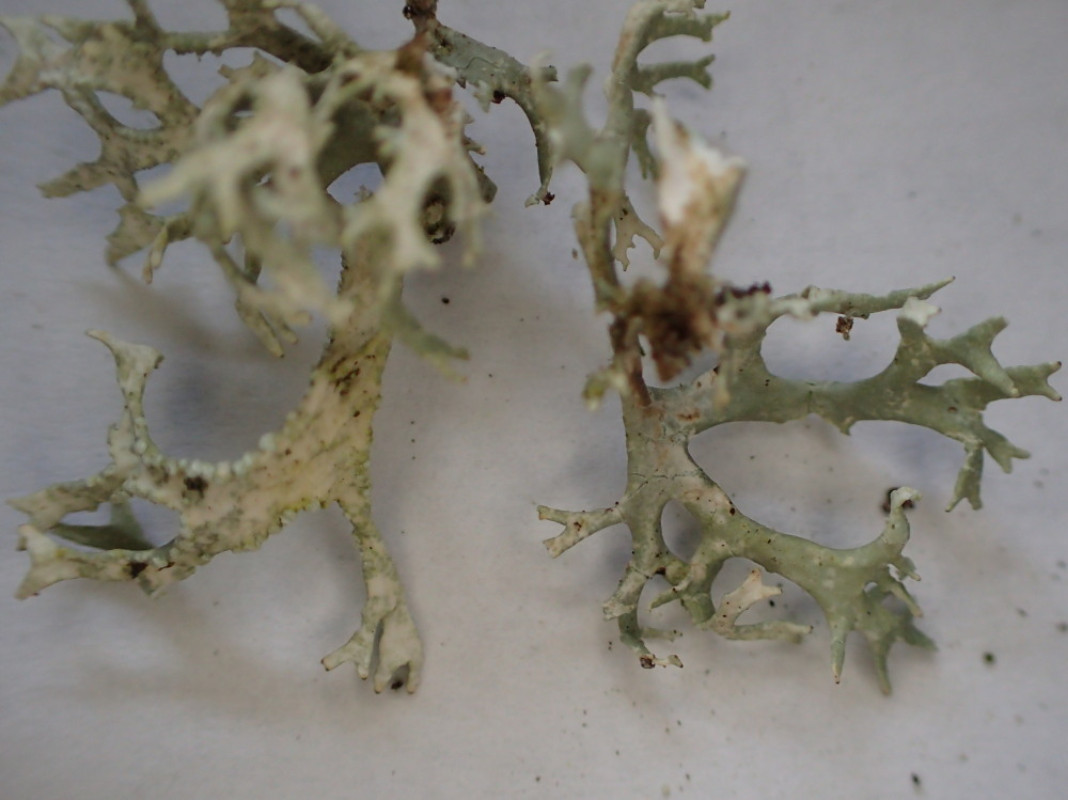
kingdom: Fungi
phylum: Ascomycota
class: Lecanoromycetes
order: Lecanorales
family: Parmeliaceae
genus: Evernia
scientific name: Evernia prunastri
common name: almindelig slåenlav
